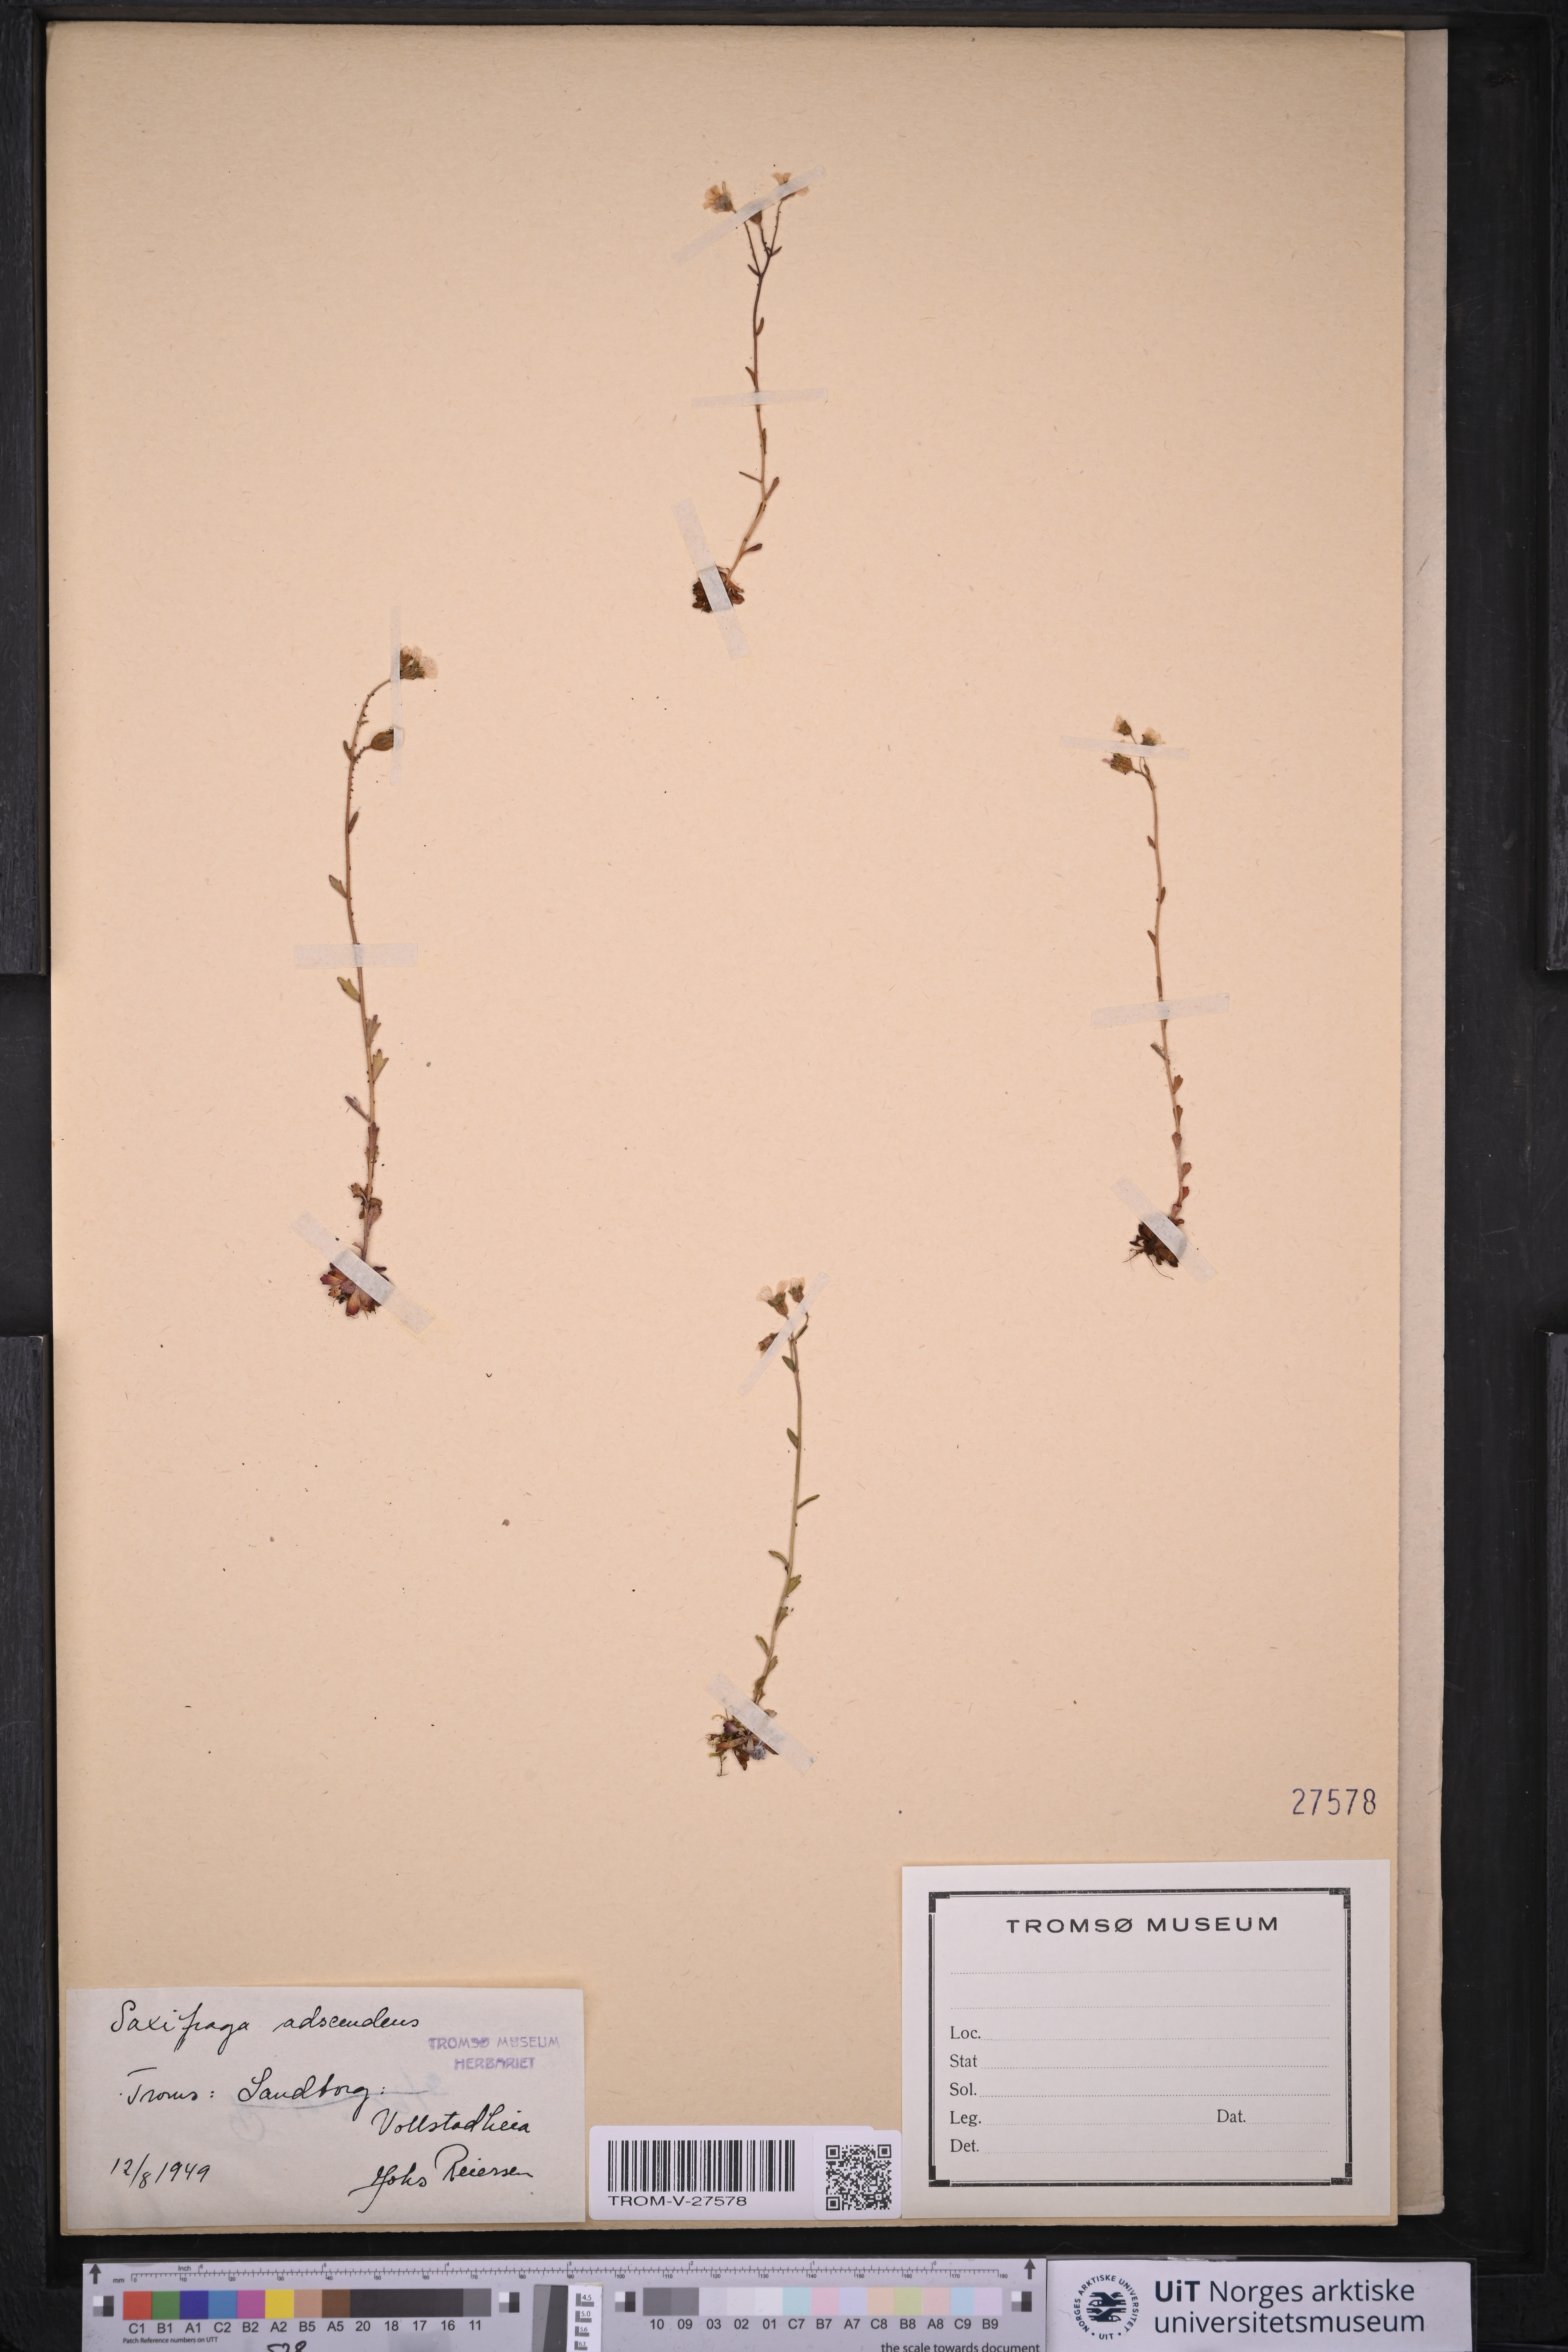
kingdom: Plantae
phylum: Tracheophyta
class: Magnoliopsida
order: Saxifragales
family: Saxifragaceae
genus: Saxifraga
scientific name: Saxifraga adscendens
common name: Ascending saxifrage
